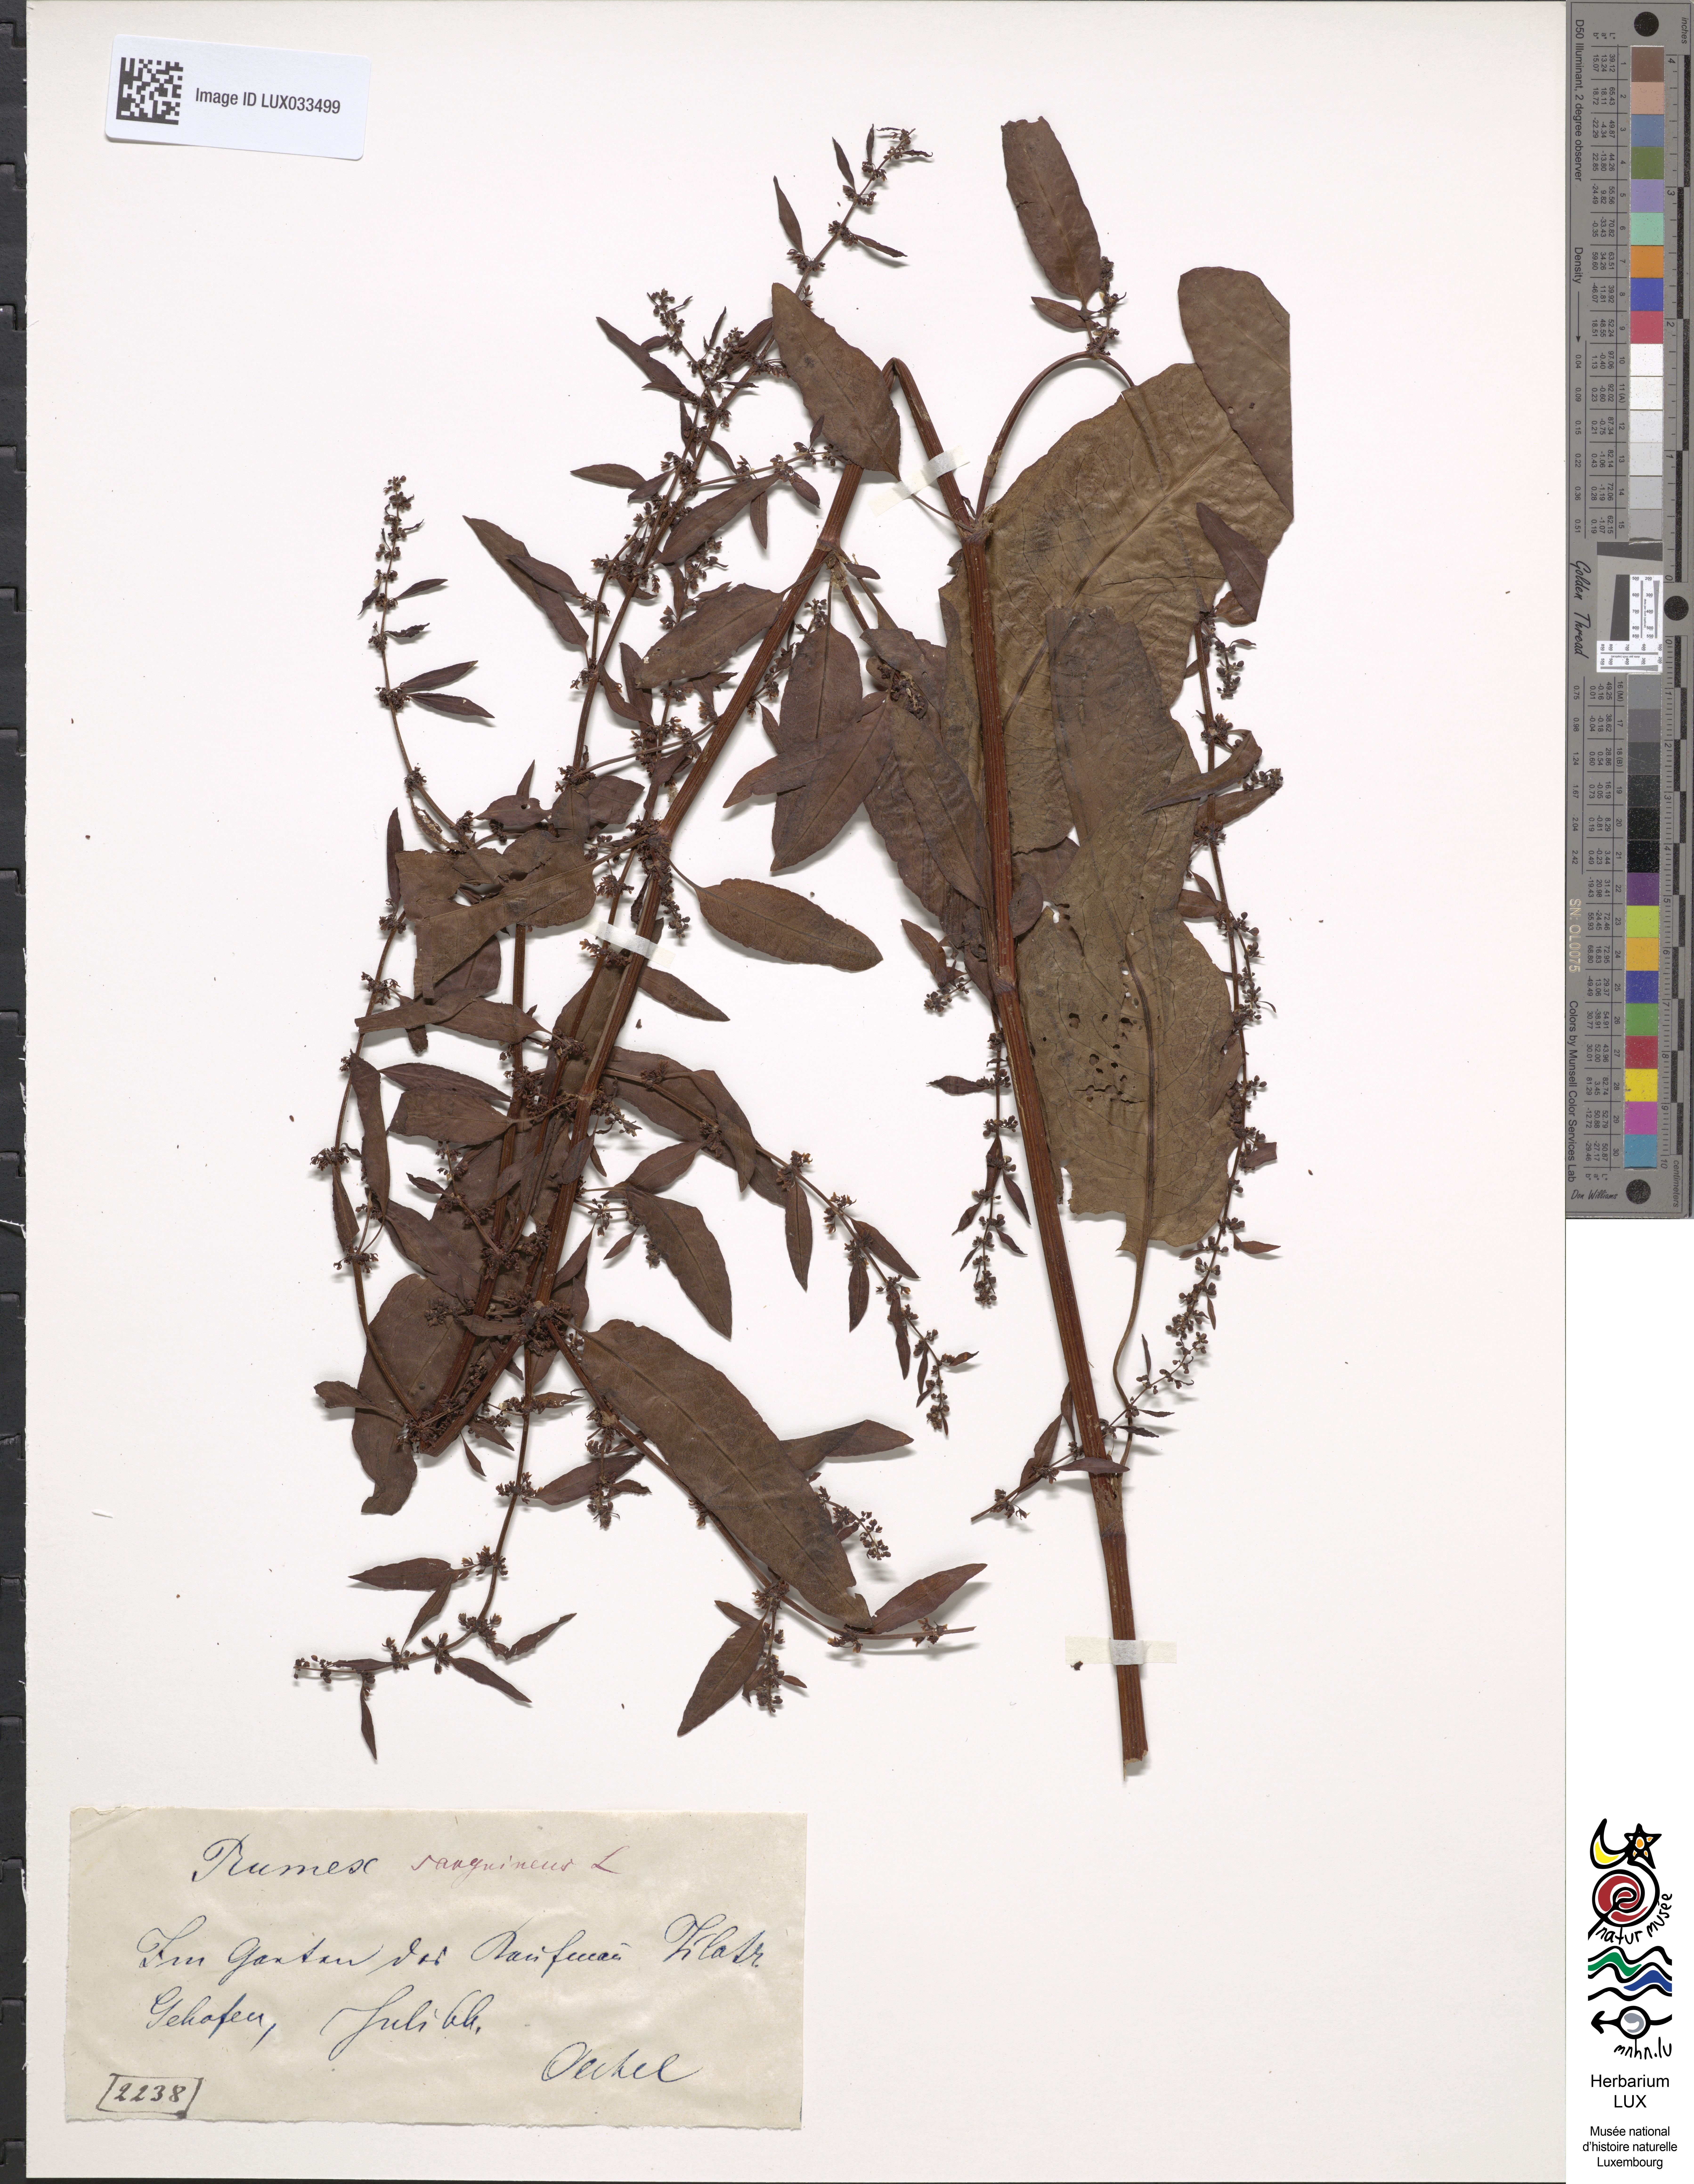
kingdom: Plantae
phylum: Tracheophyta
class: Magnoliopsida
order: Caryophyllales
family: Polygonaceae
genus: Rumex
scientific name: Rumex sanguineus
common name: Wood dock
